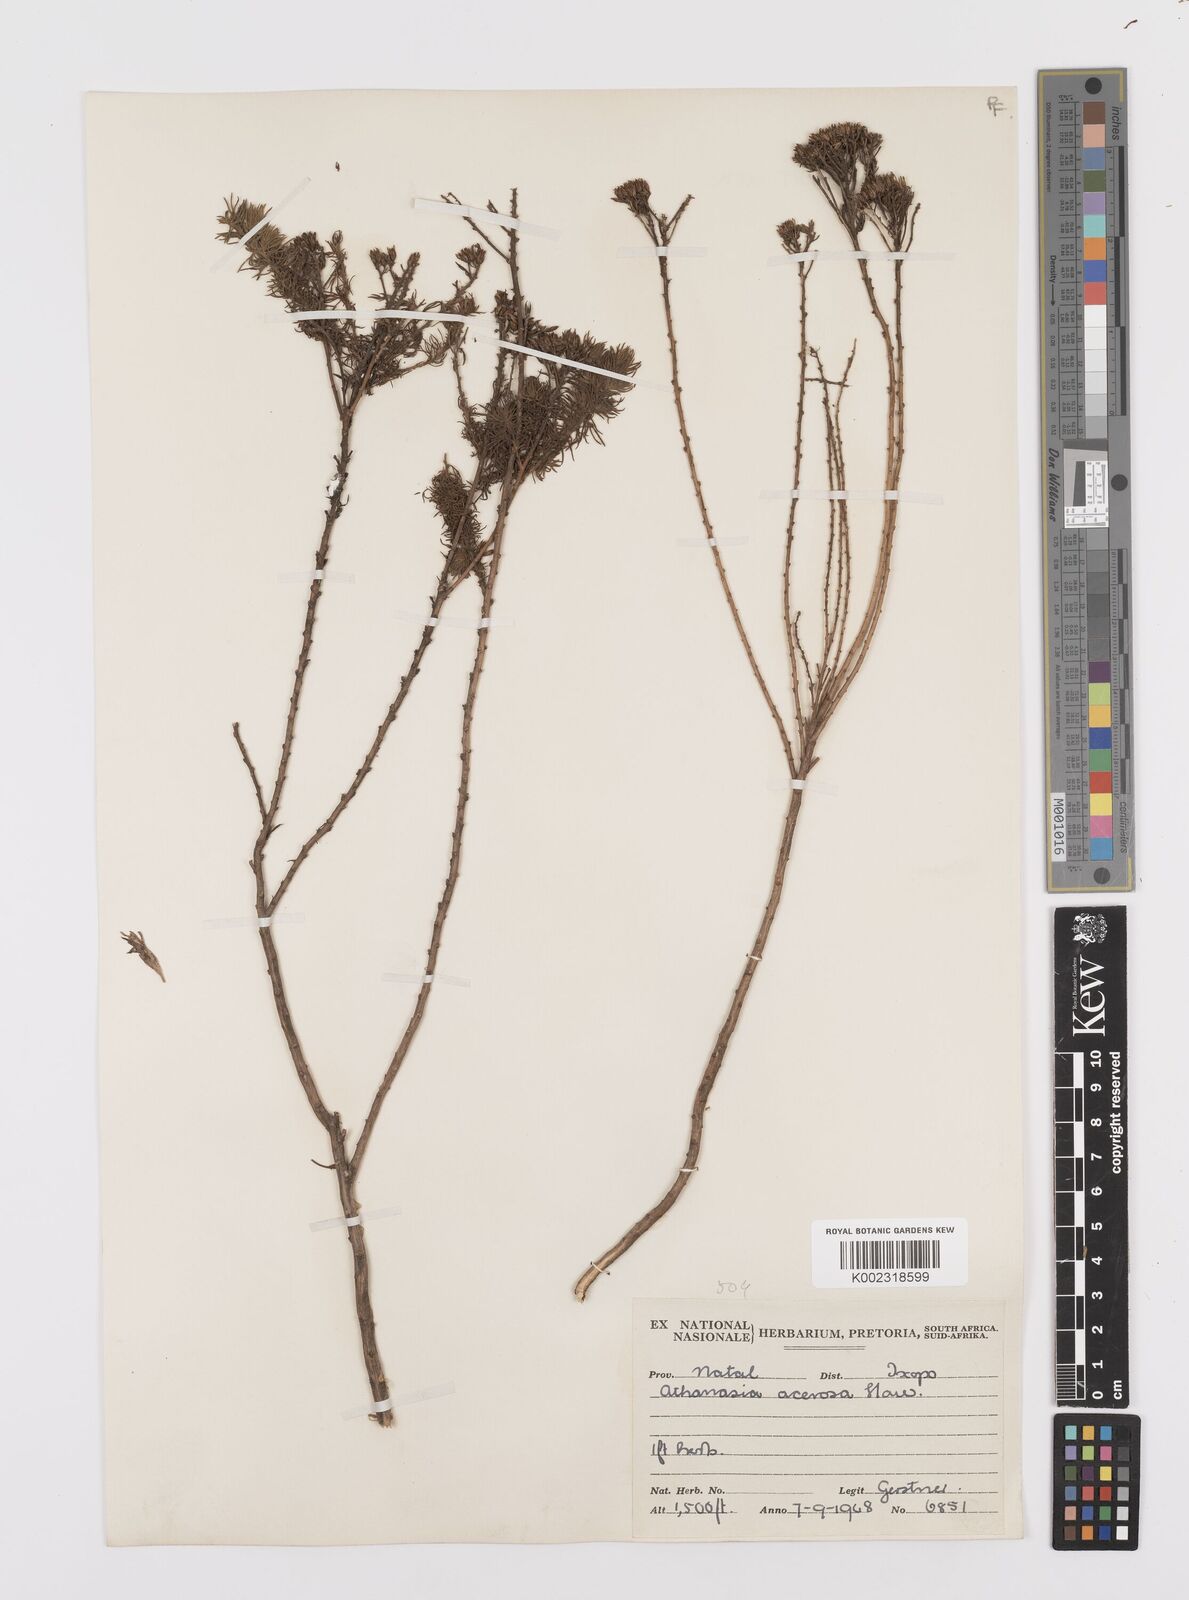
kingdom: Plantae
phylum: Tracheophyta
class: Magnoliopsida
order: Asterales
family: Asteraceae
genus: Phymaspermum
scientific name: Phymaspermum acerosum
